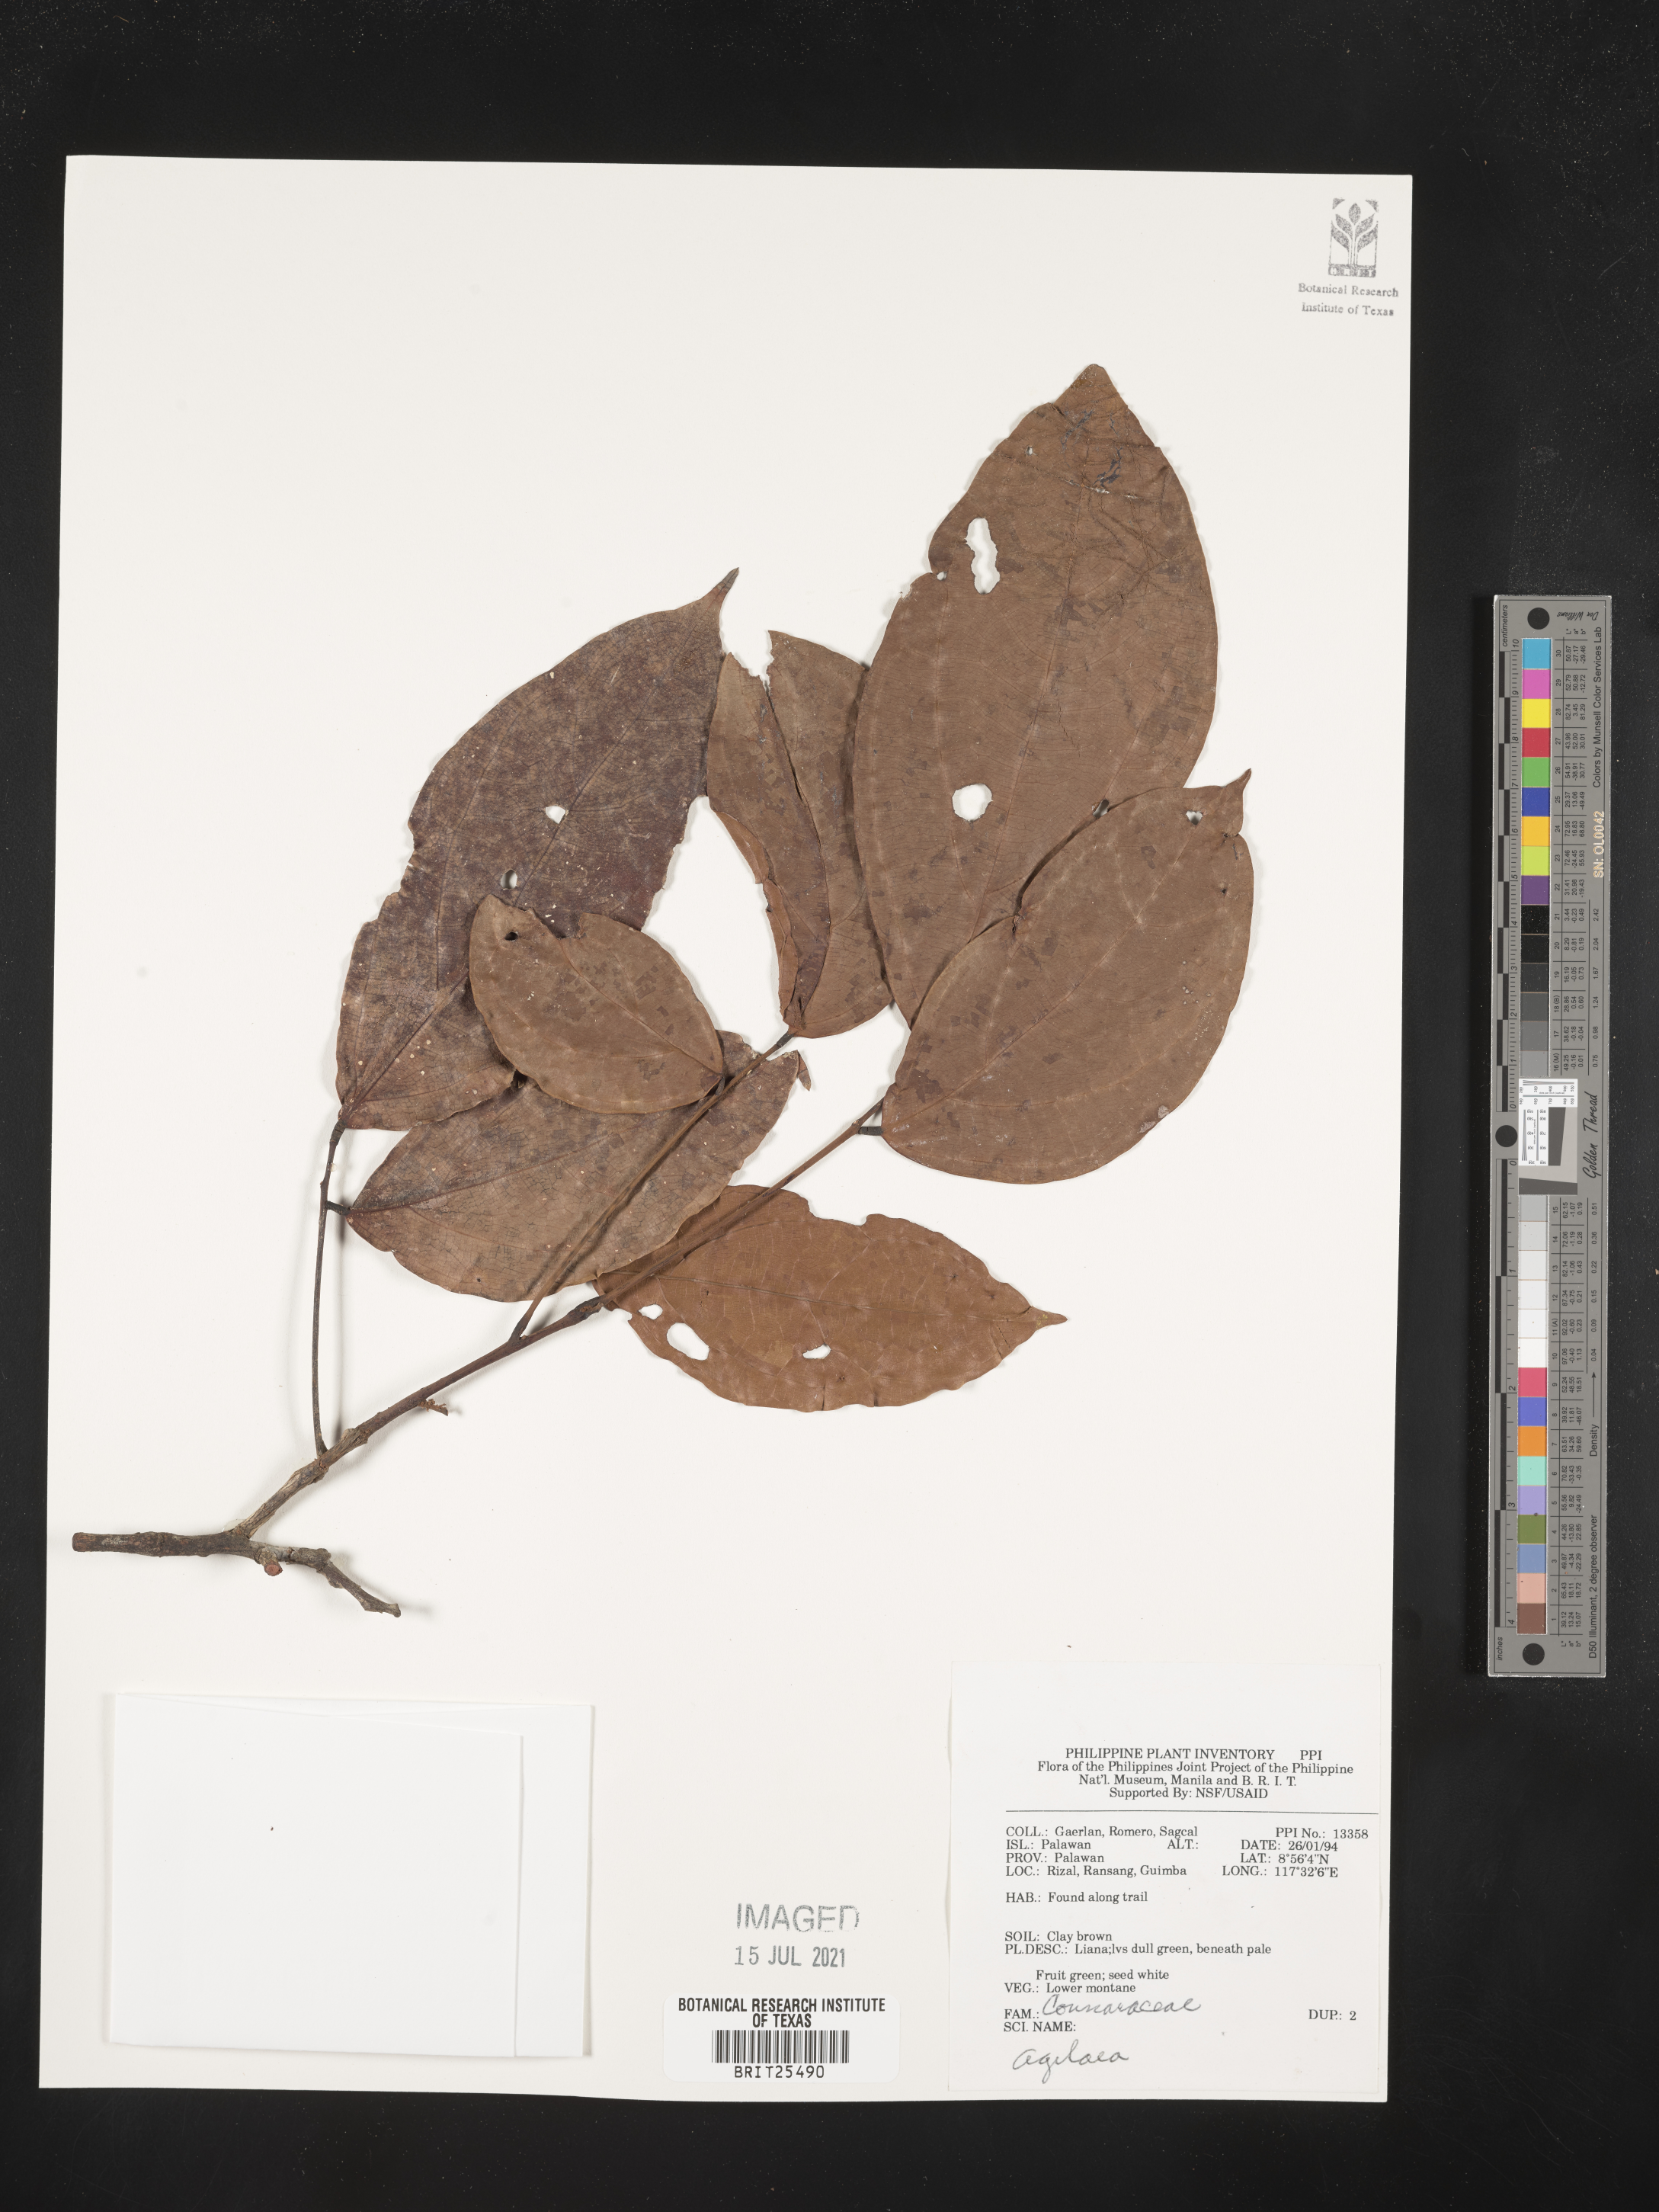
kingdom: Plantae
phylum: Tracheophyta
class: Magnoliopsida
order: Oxalidales
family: Connaraceae
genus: Agelaea
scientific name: Agelaea
